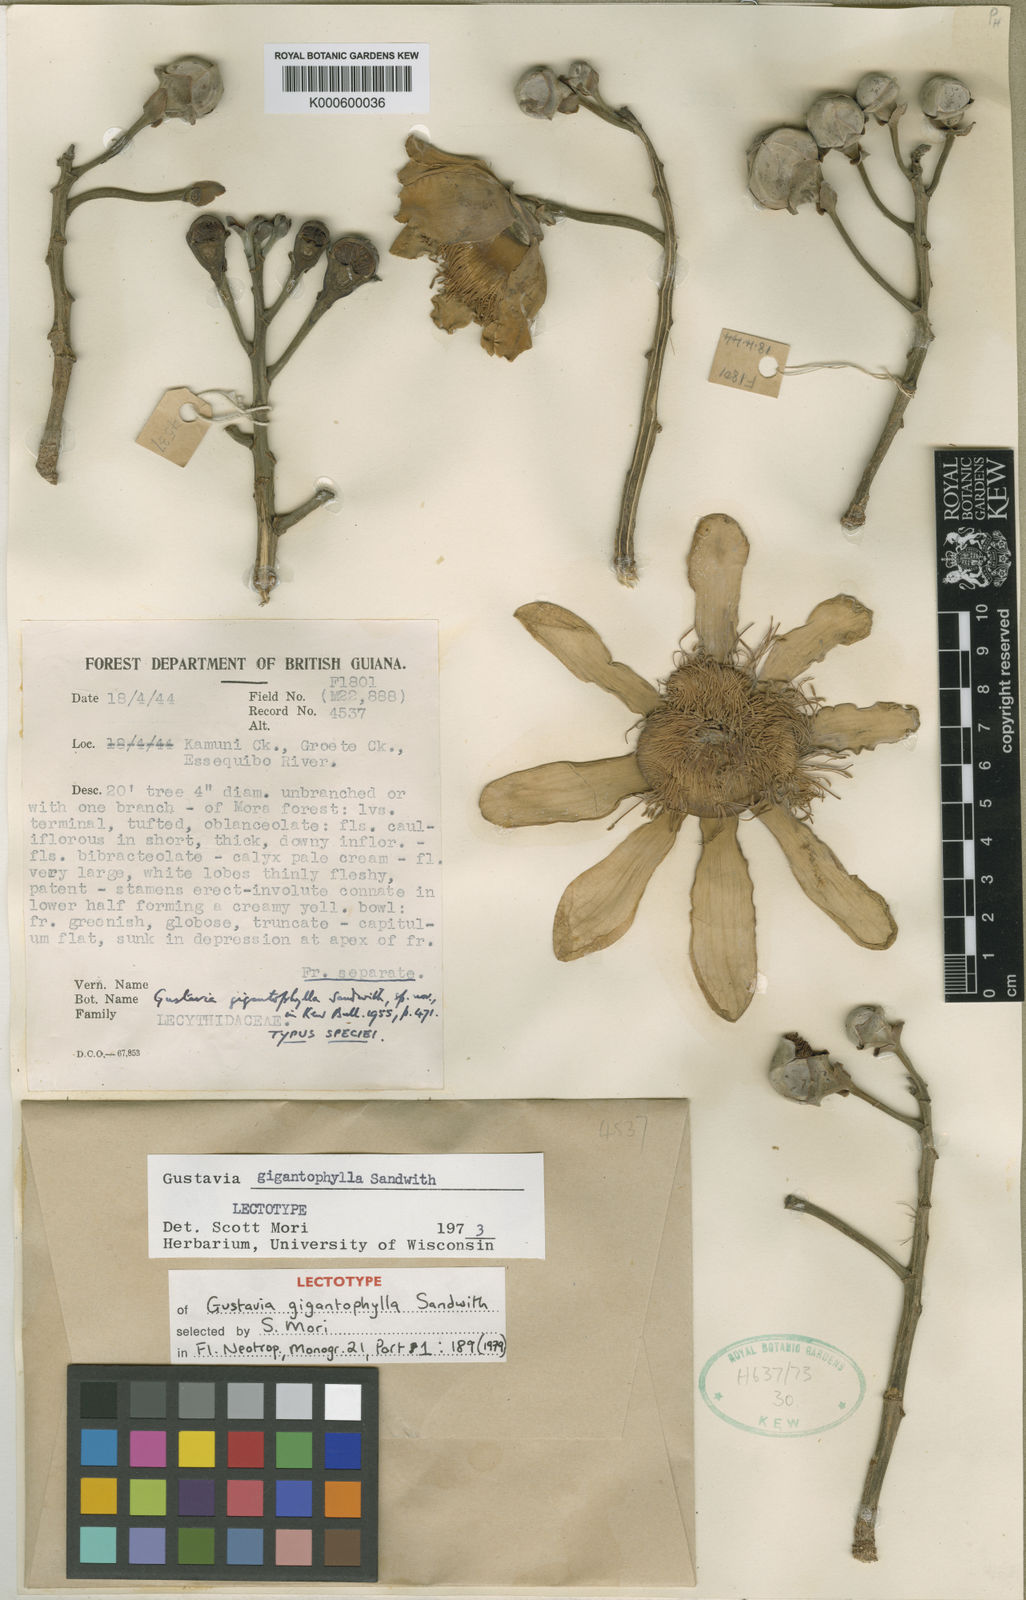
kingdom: Plantae
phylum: Tracheophyta
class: Magnoliopsida
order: Ericales
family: Lecythidaceae
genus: Gustavia
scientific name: Gustavia gigantophylla
